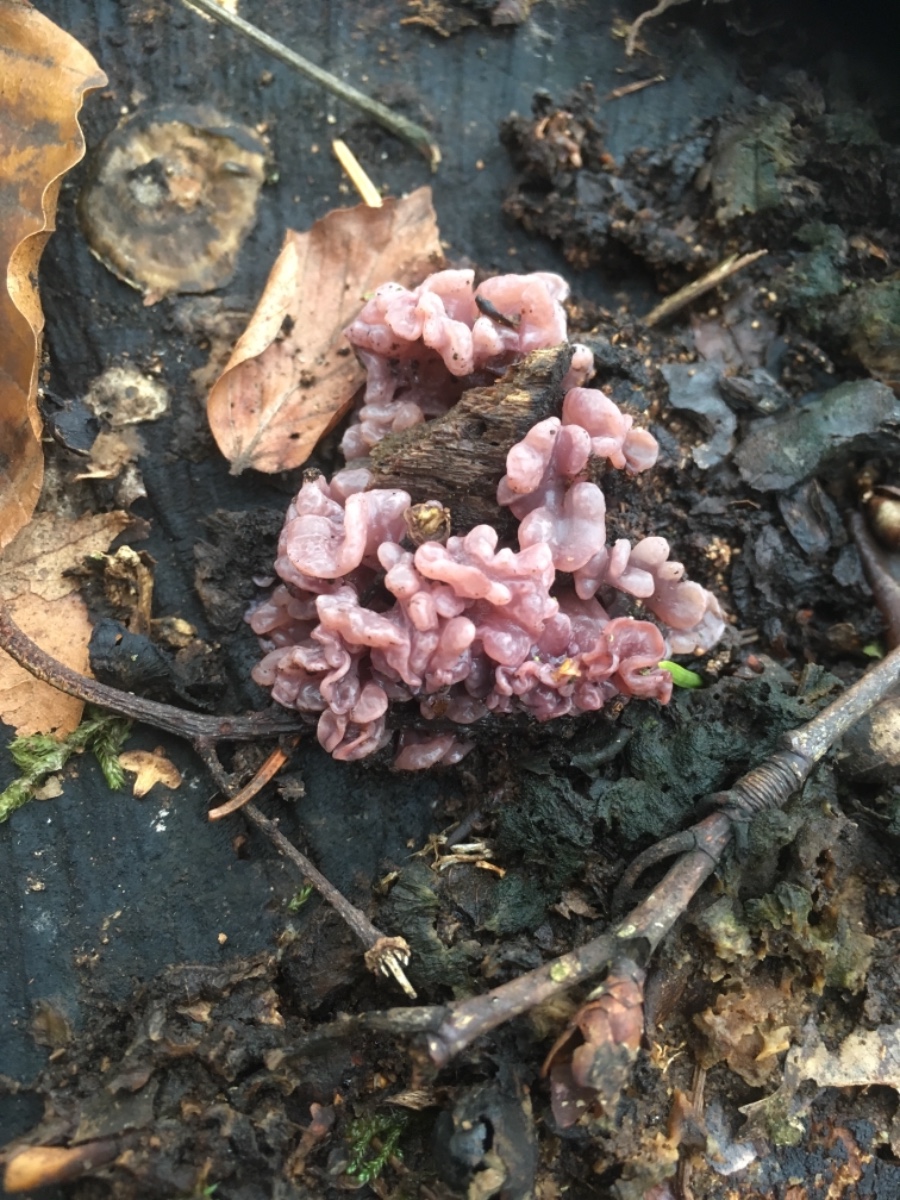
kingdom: Fungi
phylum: Ascomycota
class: Leotiomycetes
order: Helotiales
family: Gelatinodiscaceae
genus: Ascocoryne
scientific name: Ascocoryne sarcoides
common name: rødlilla sejskive
